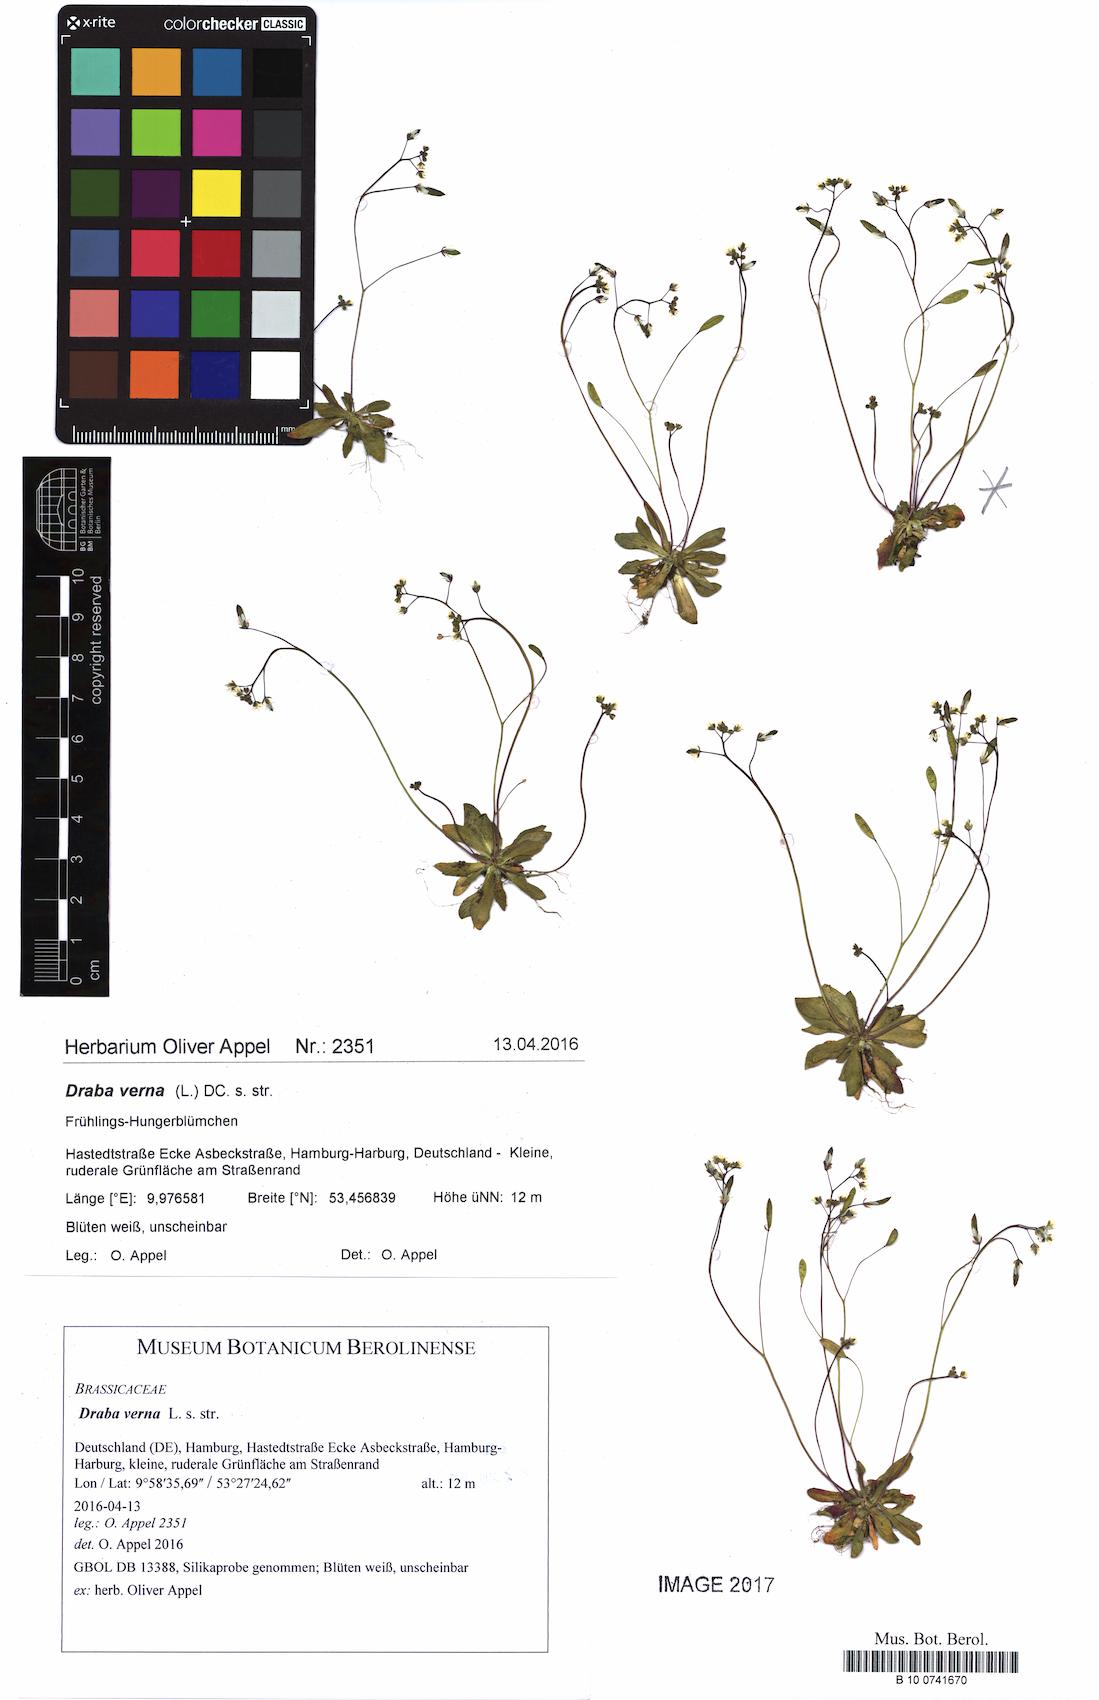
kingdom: Plantae
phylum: Tracheophyta
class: Magnoliopsida
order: Brassicales
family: Brassicaceae
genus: Draba
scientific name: Draba verna
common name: Spring draba
